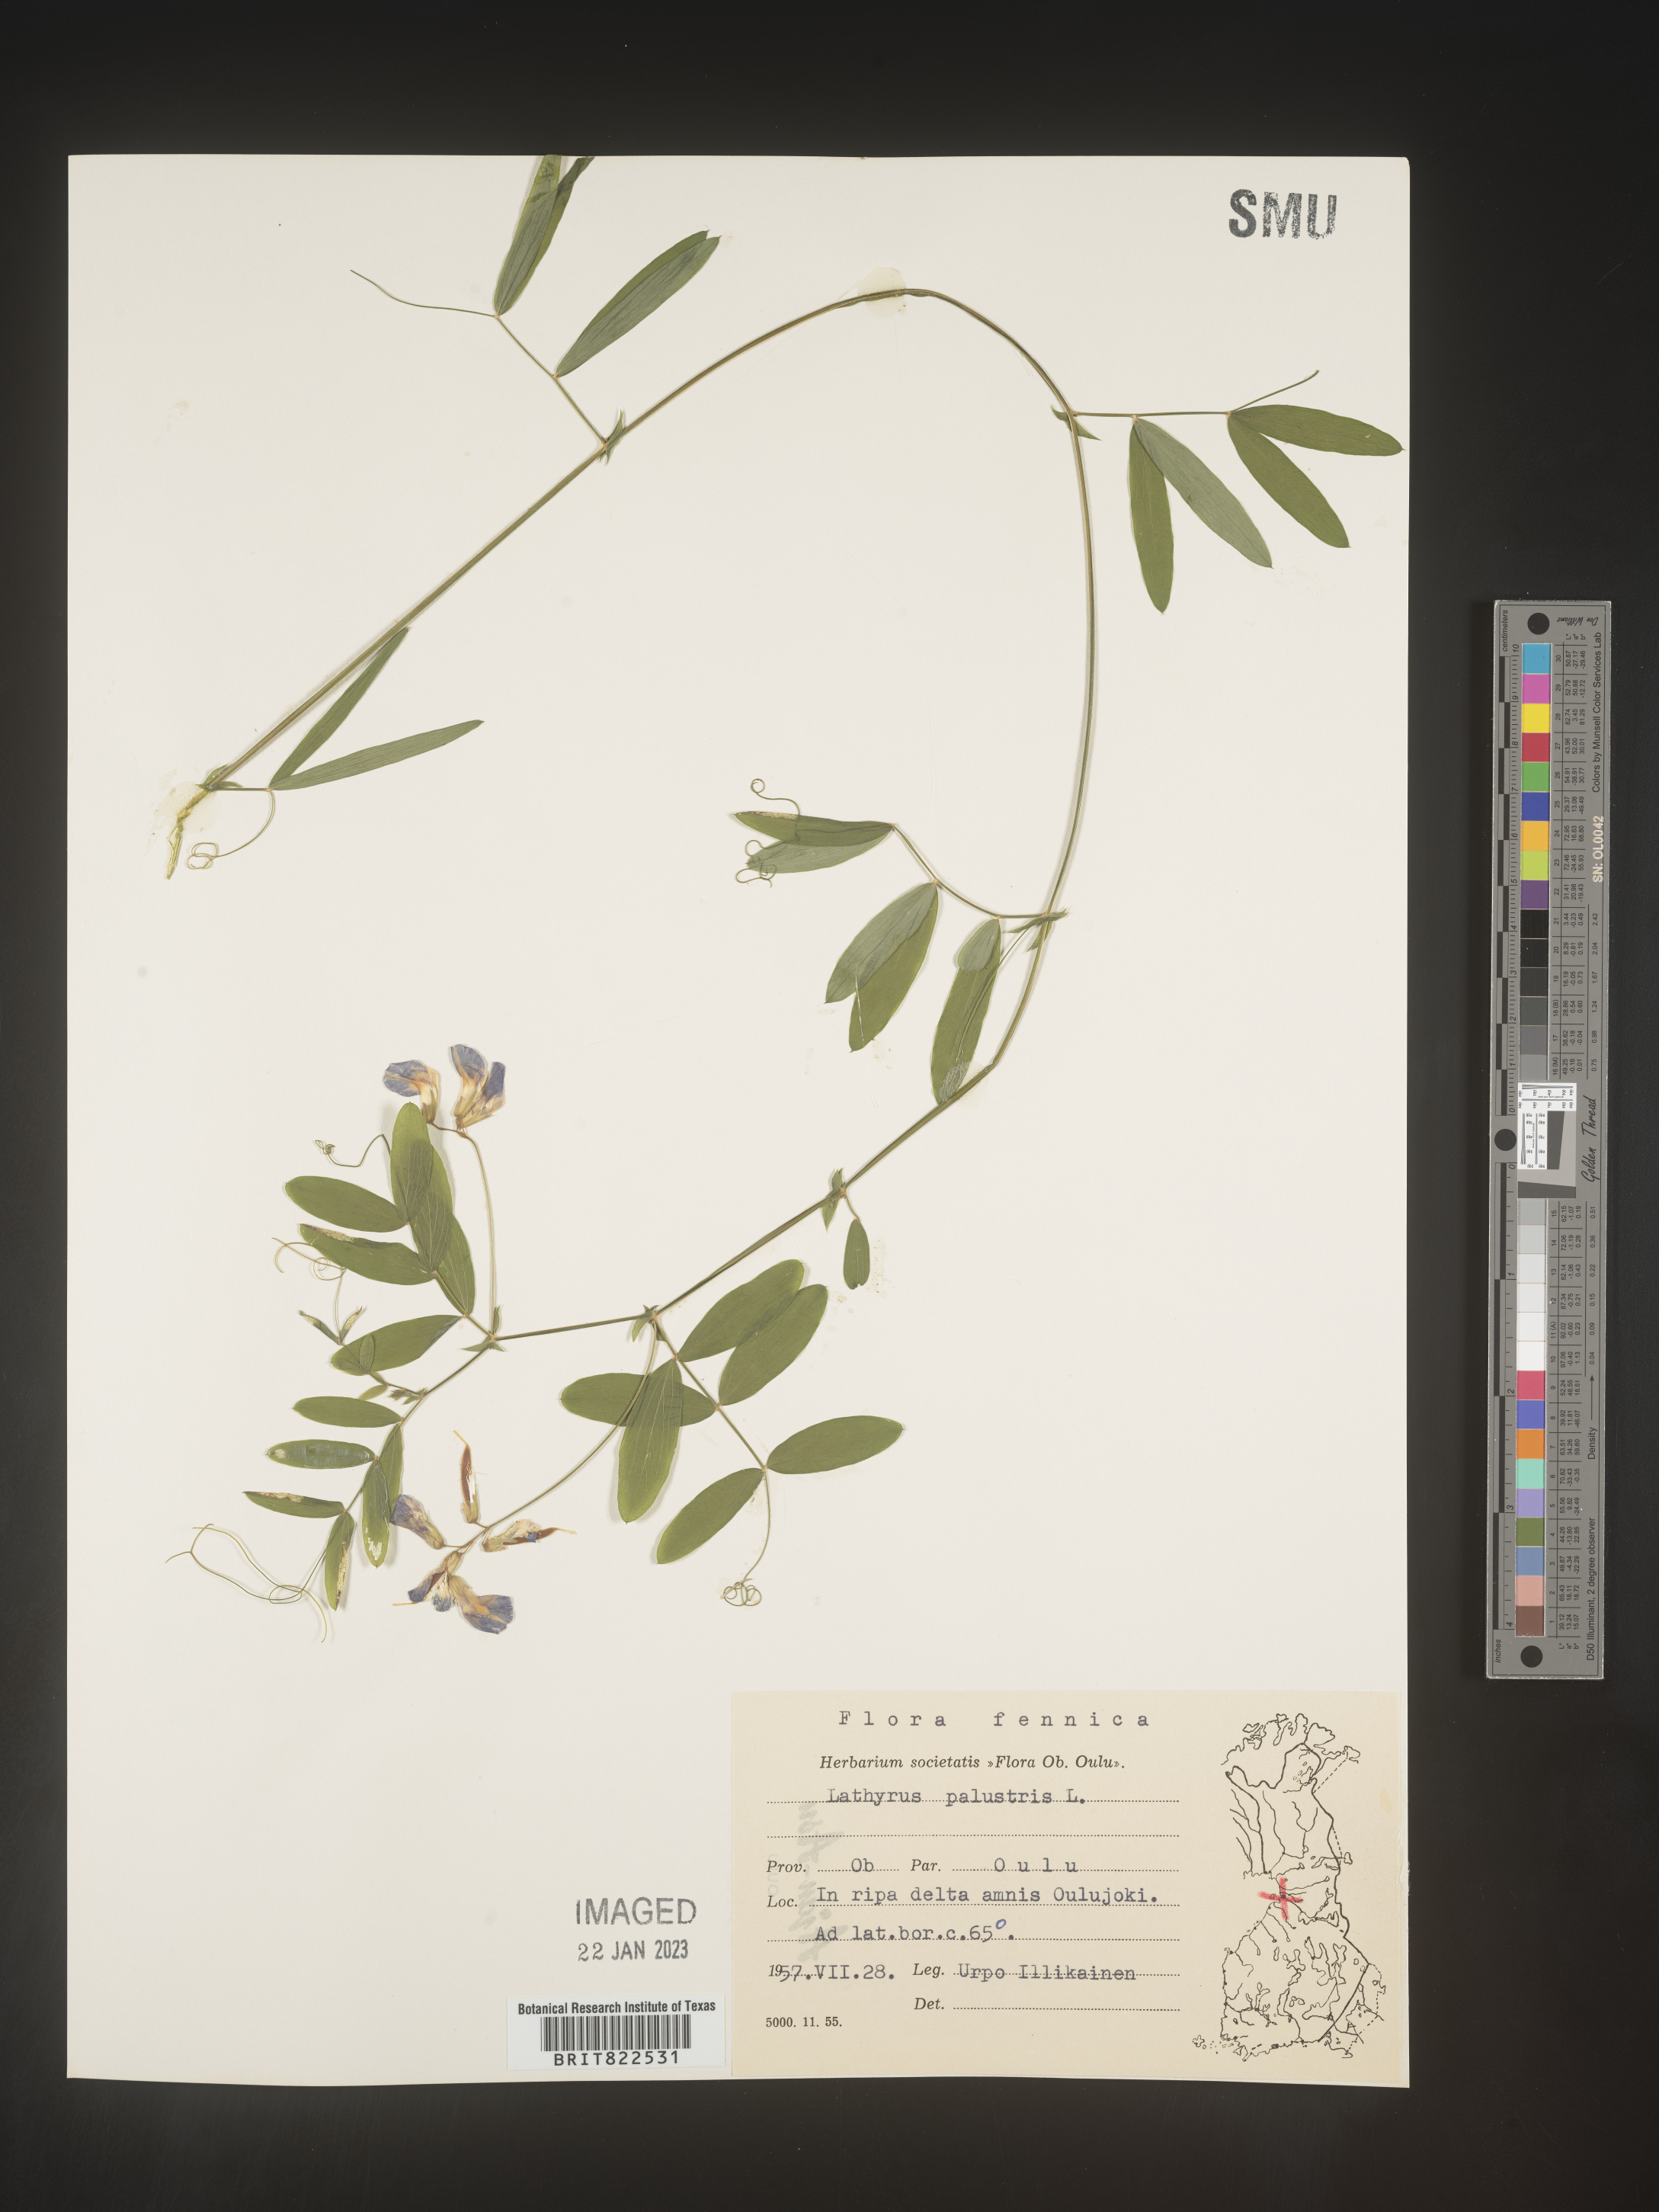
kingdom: Plantae
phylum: Tracheophyta
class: Magnoliopsida
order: Fabales
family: Fabaceae
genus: Lathyrus
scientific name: Lathyrus
